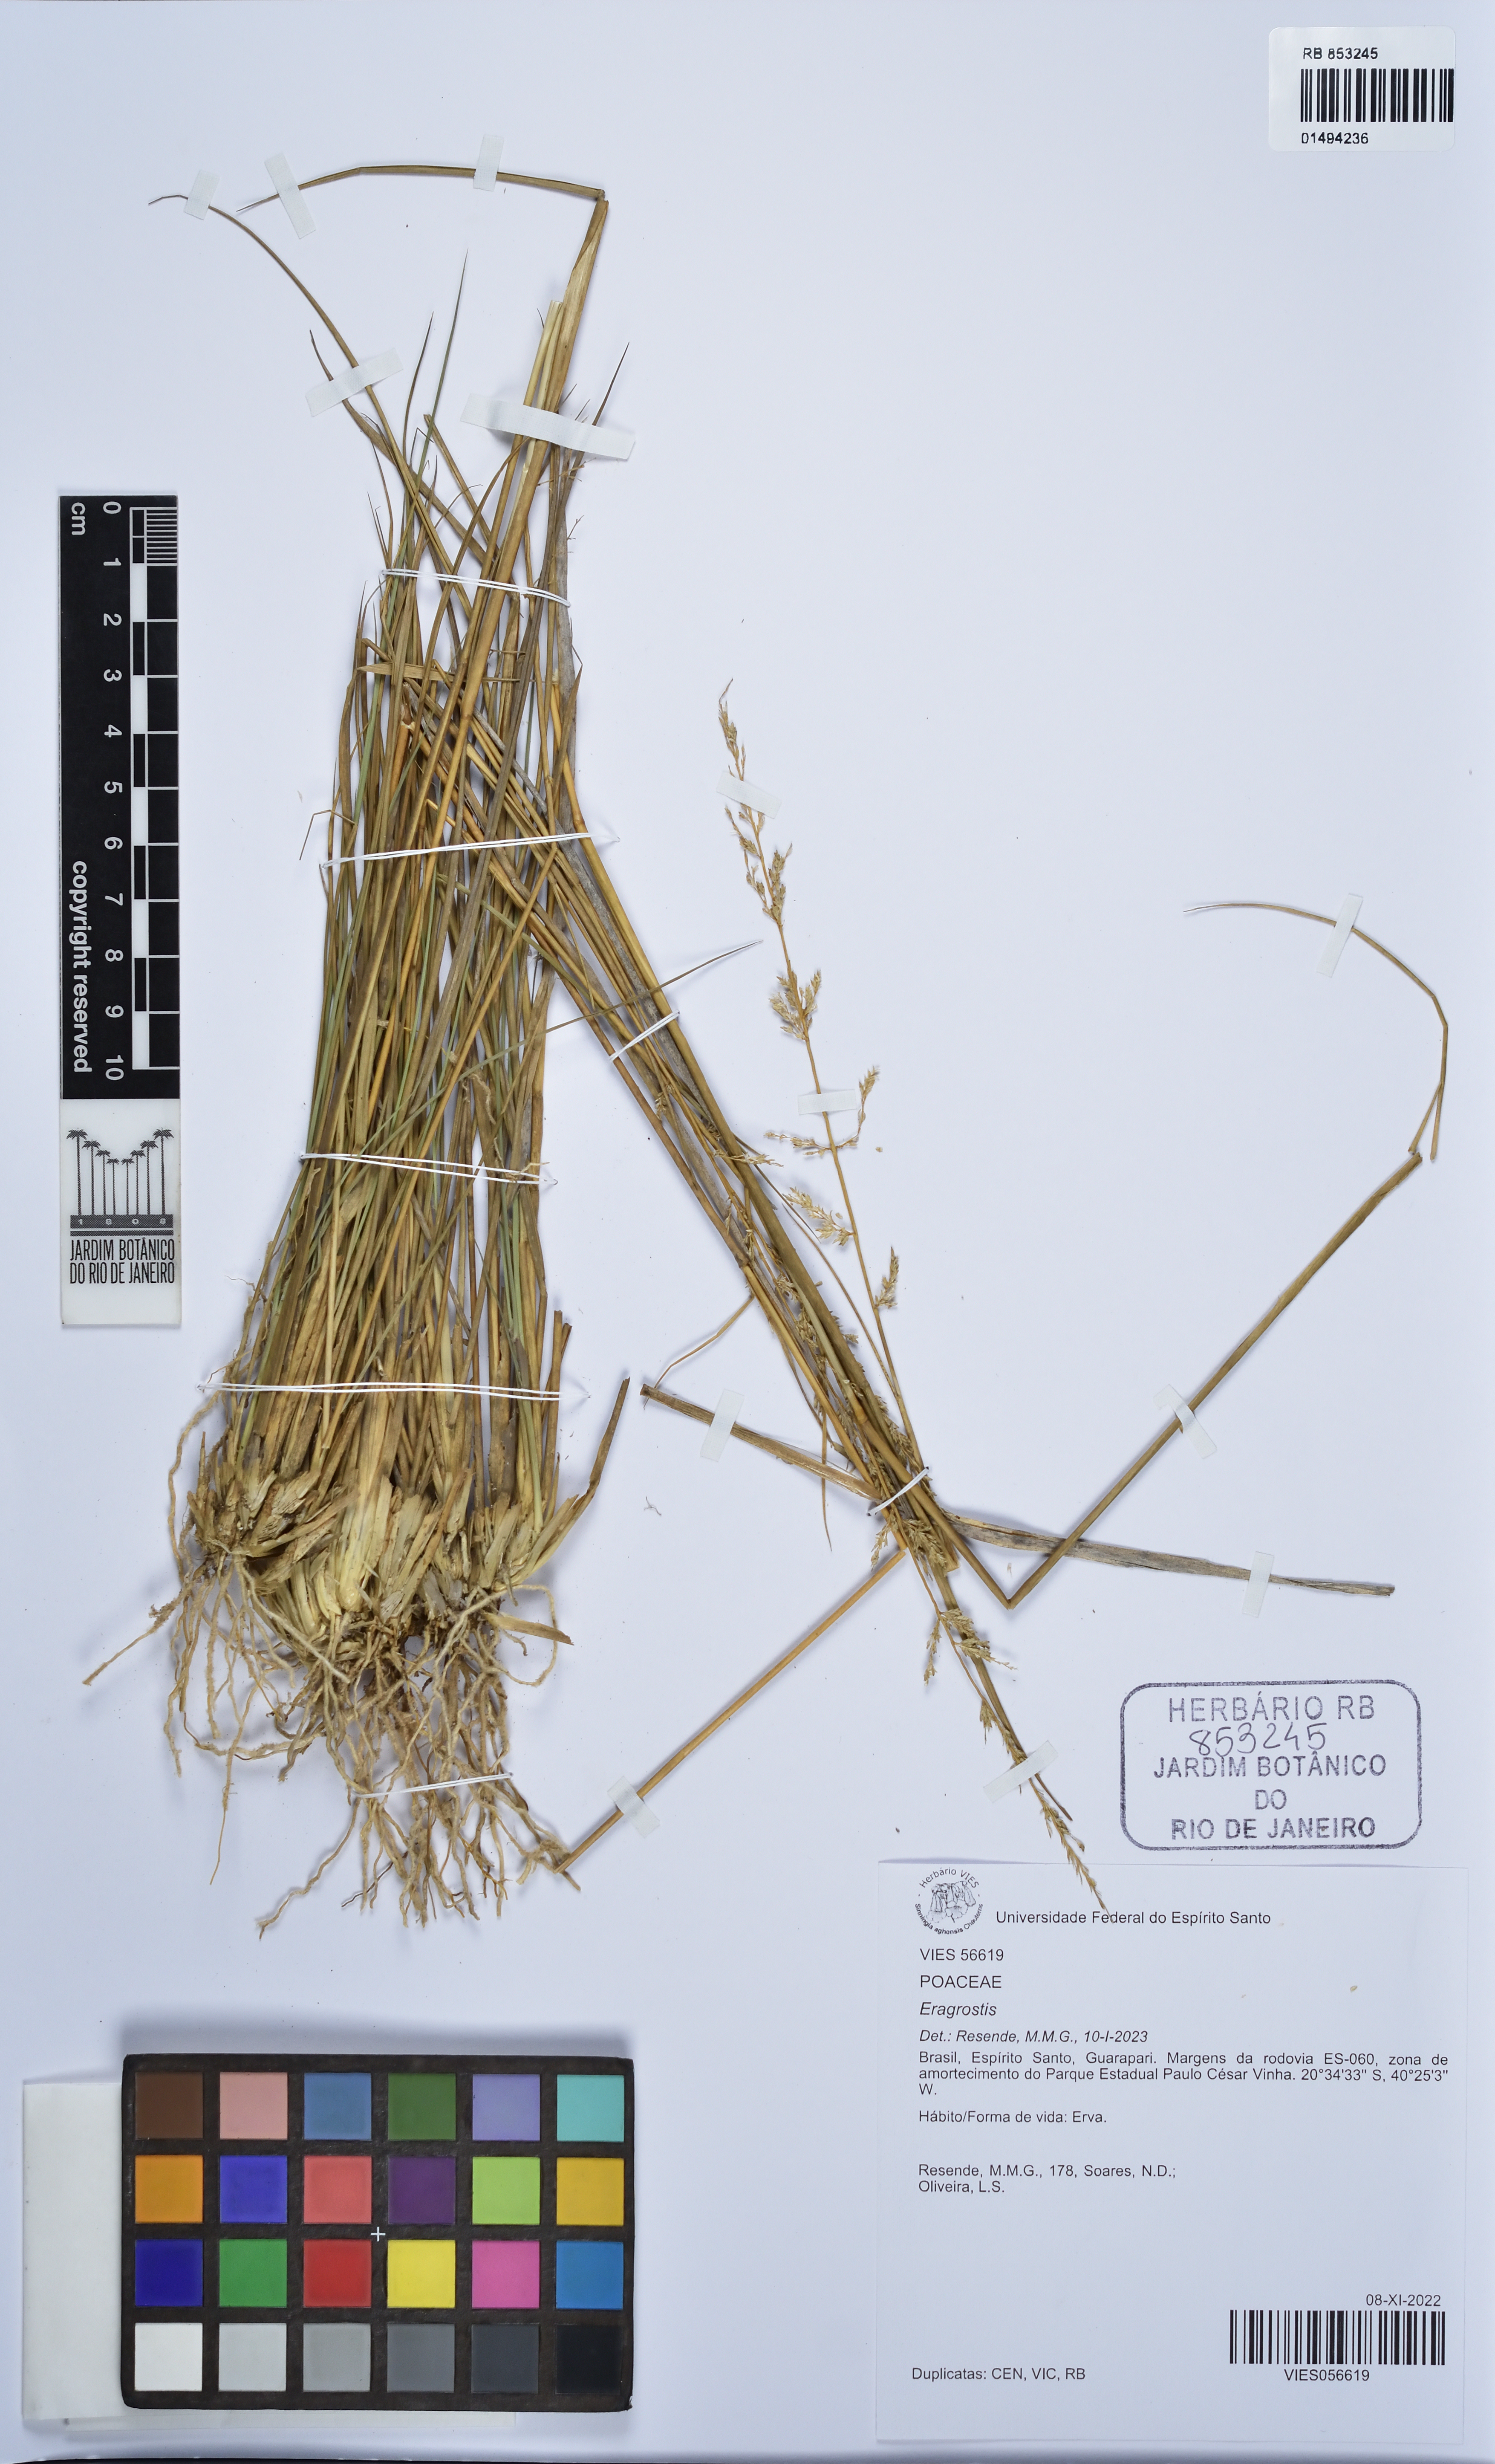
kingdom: Plantae
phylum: Tracheophyta
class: Liliopsida
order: Poales
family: Poaceae
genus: Eragrostis
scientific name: Eragrostis
